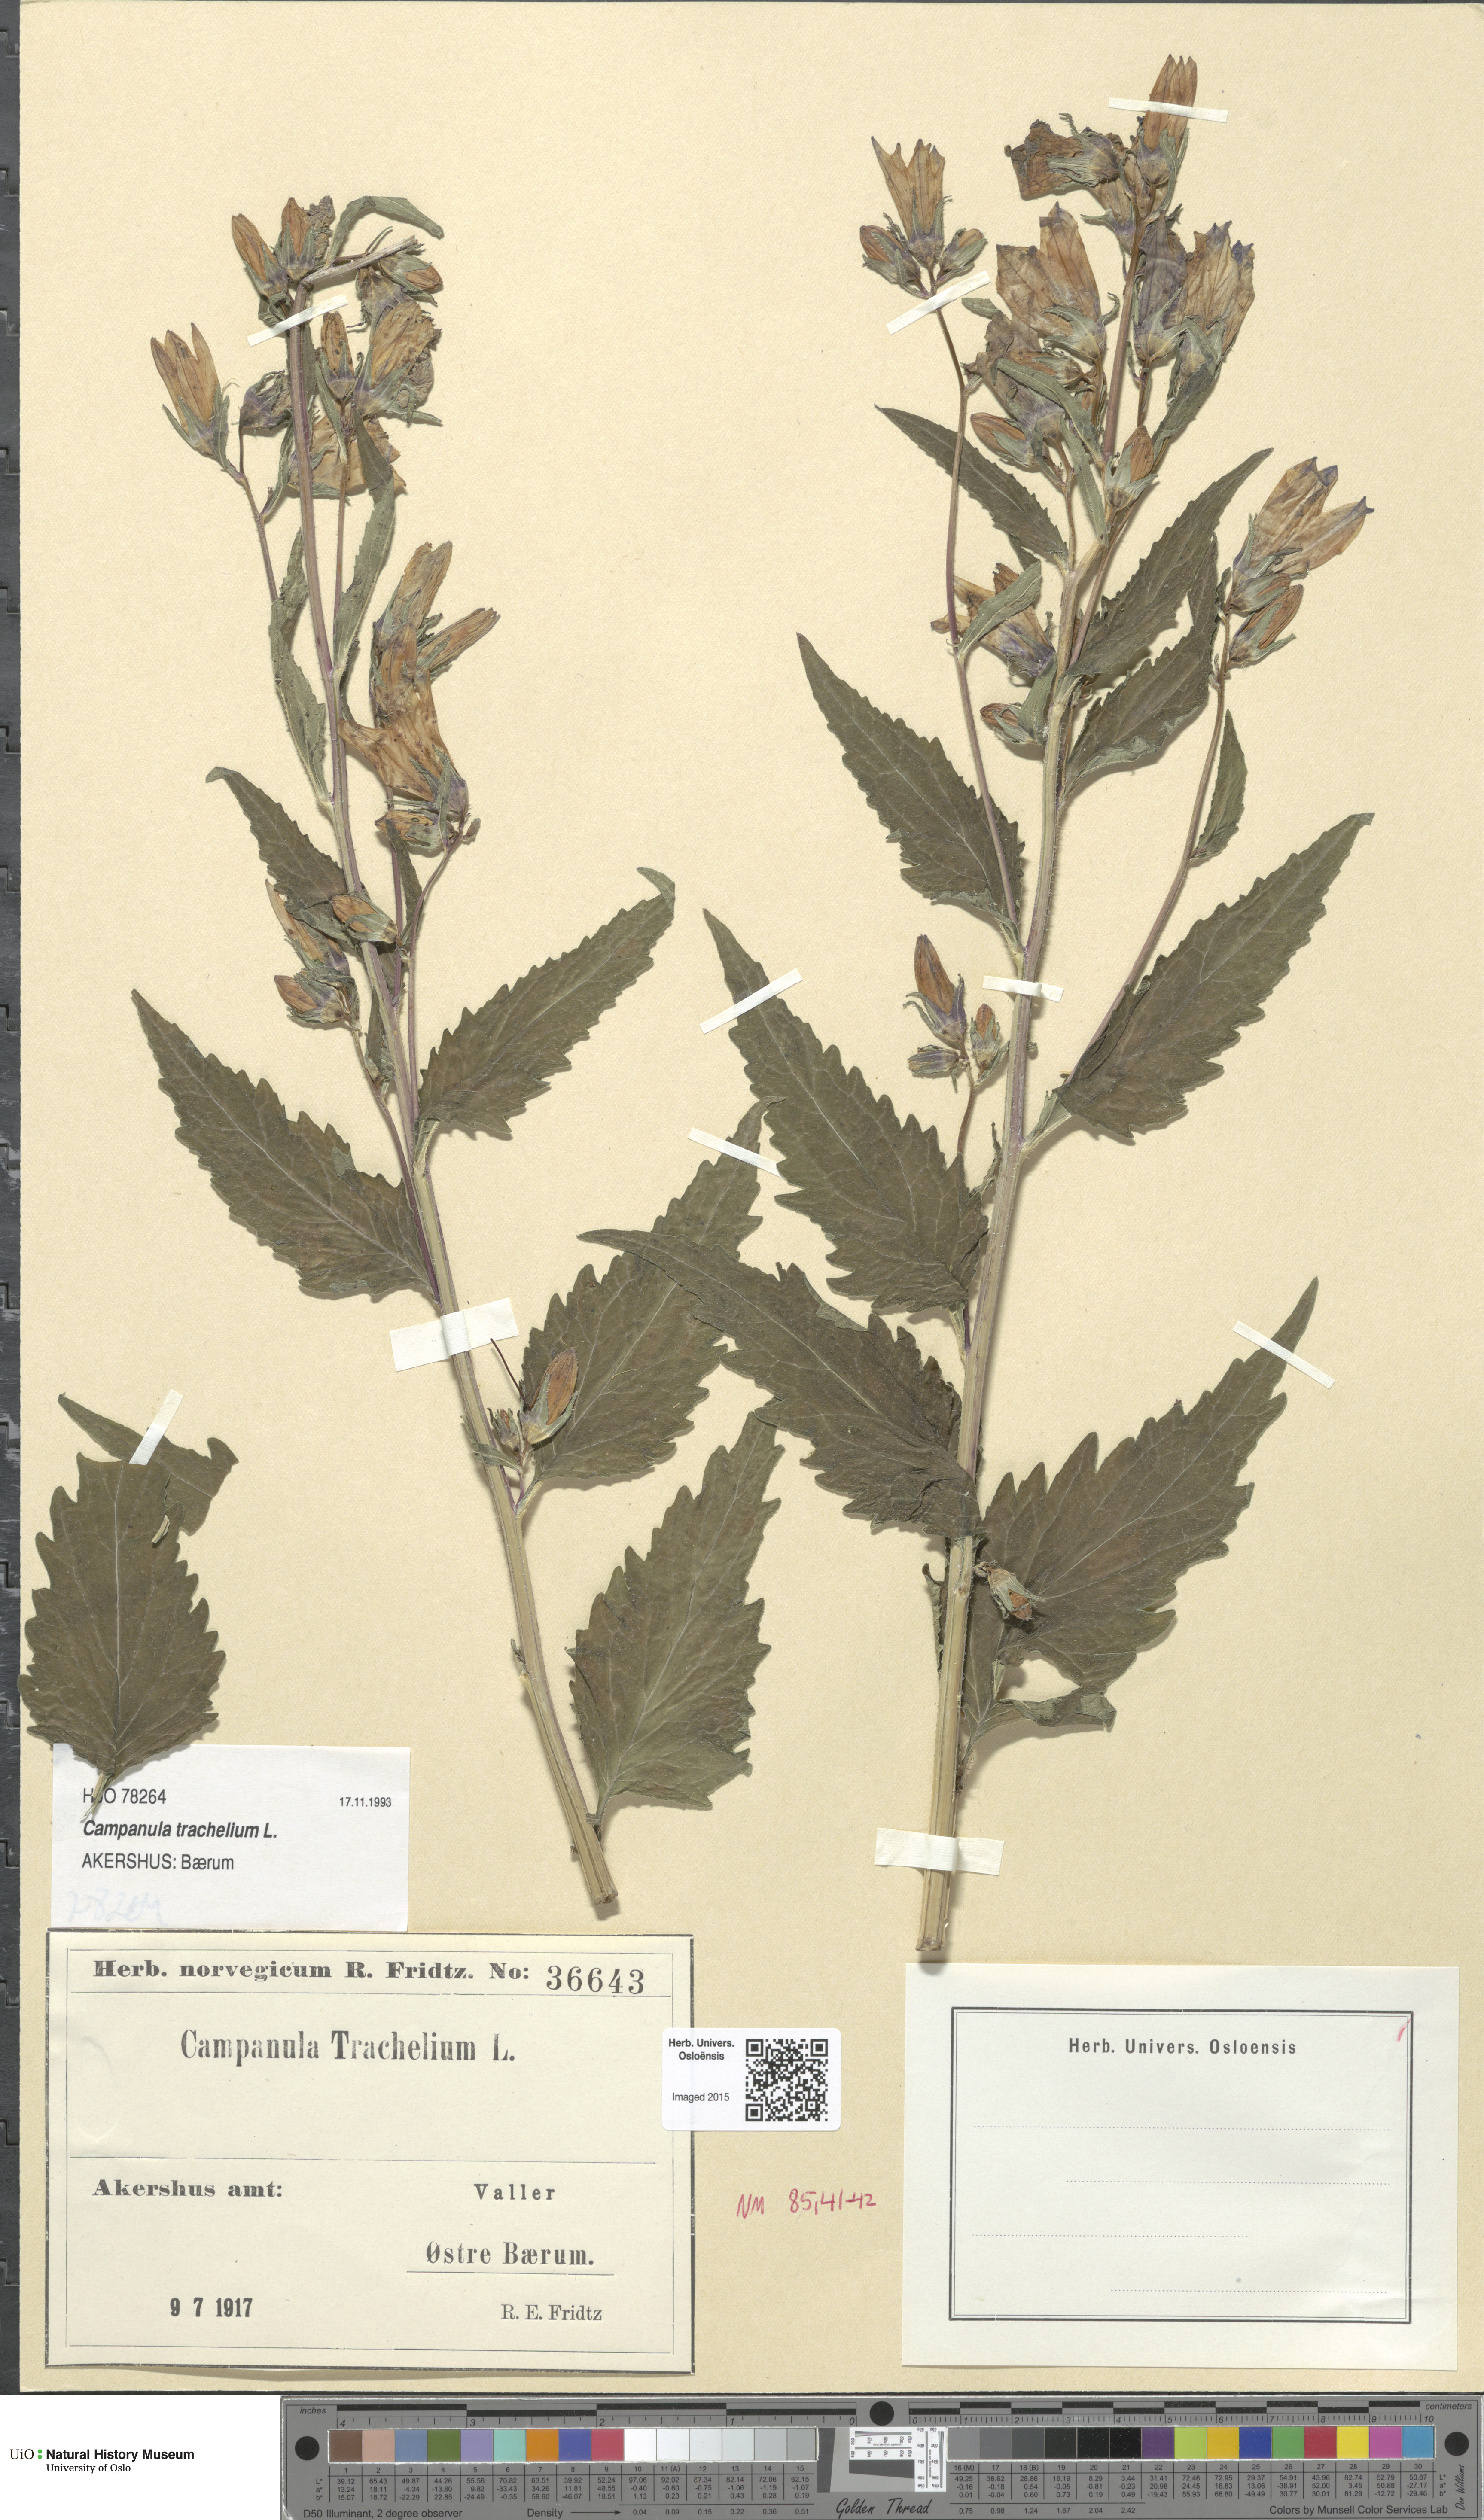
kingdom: Plantae
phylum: Tracheophyta
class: Magnoliopsida
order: Asterales
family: Campanulaceae
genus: Campanula
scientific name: Campanula trachelium
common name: Nettle-leaved bellflower
